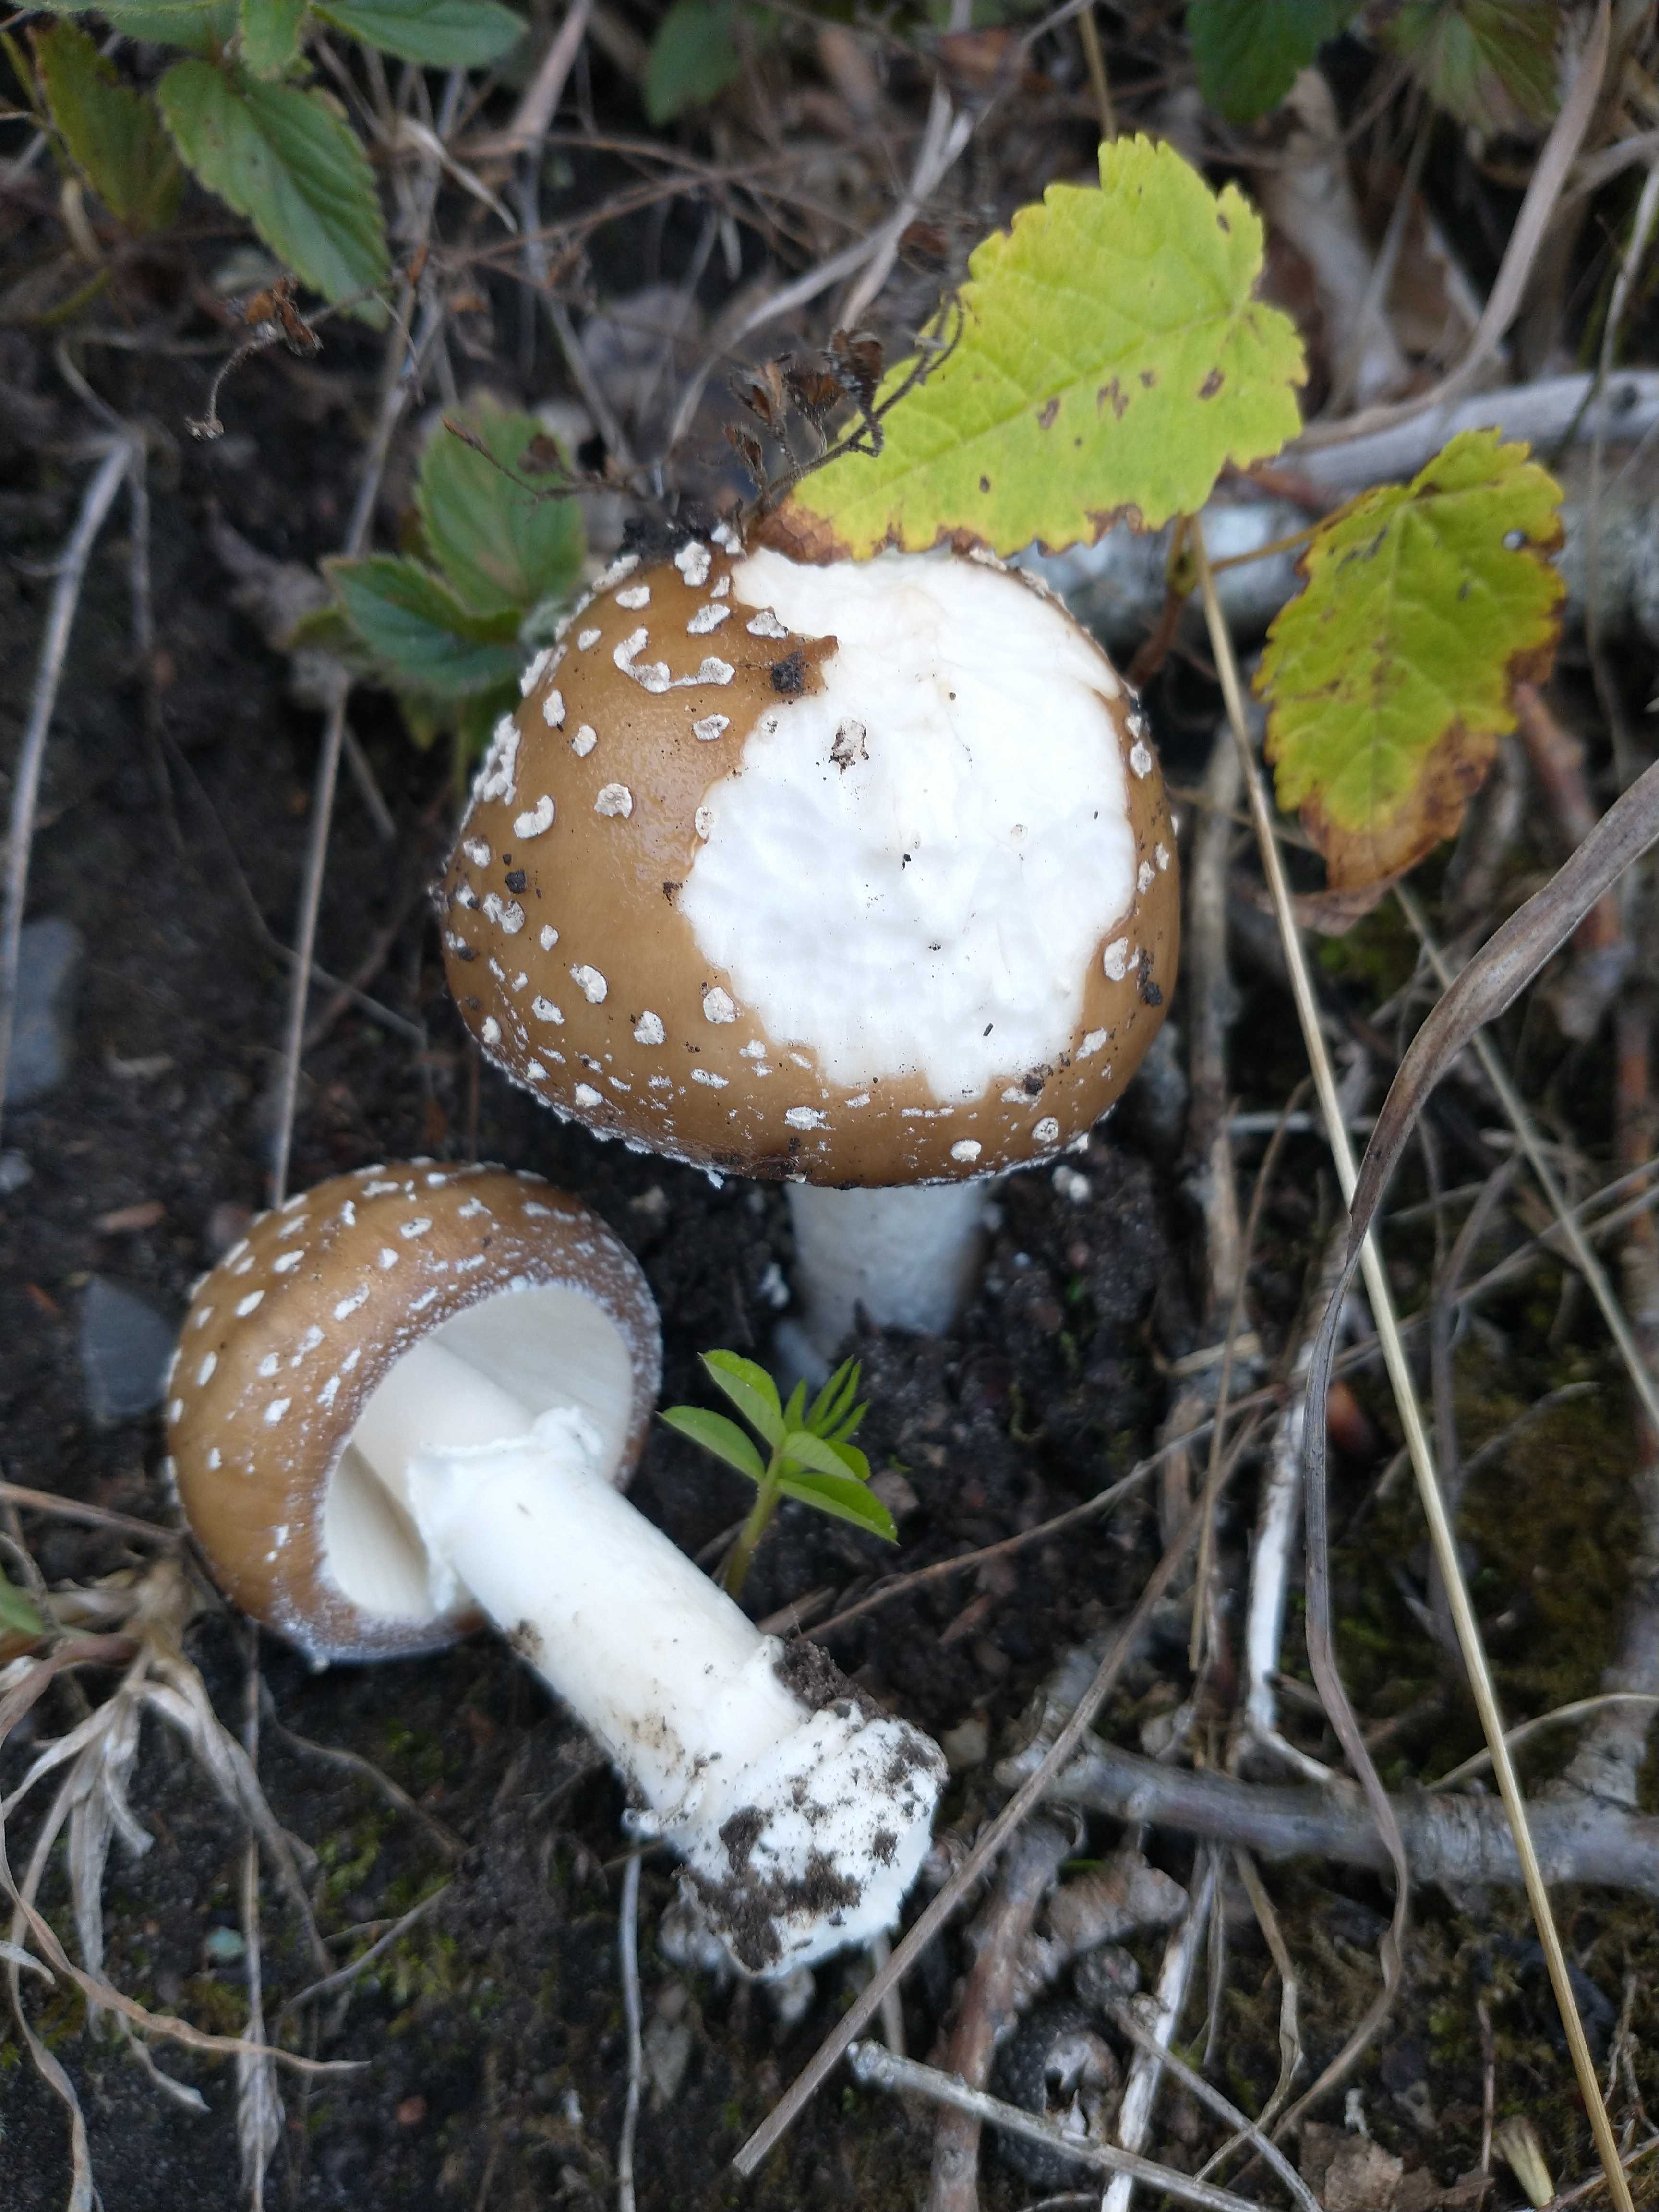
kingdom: Fungi
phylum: Basidiomycota
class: Agaricomycetes
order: Agaricales
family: Amanitaceae
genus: Amanita
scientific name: Amanita pantherina
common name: panter-fluesvamp
